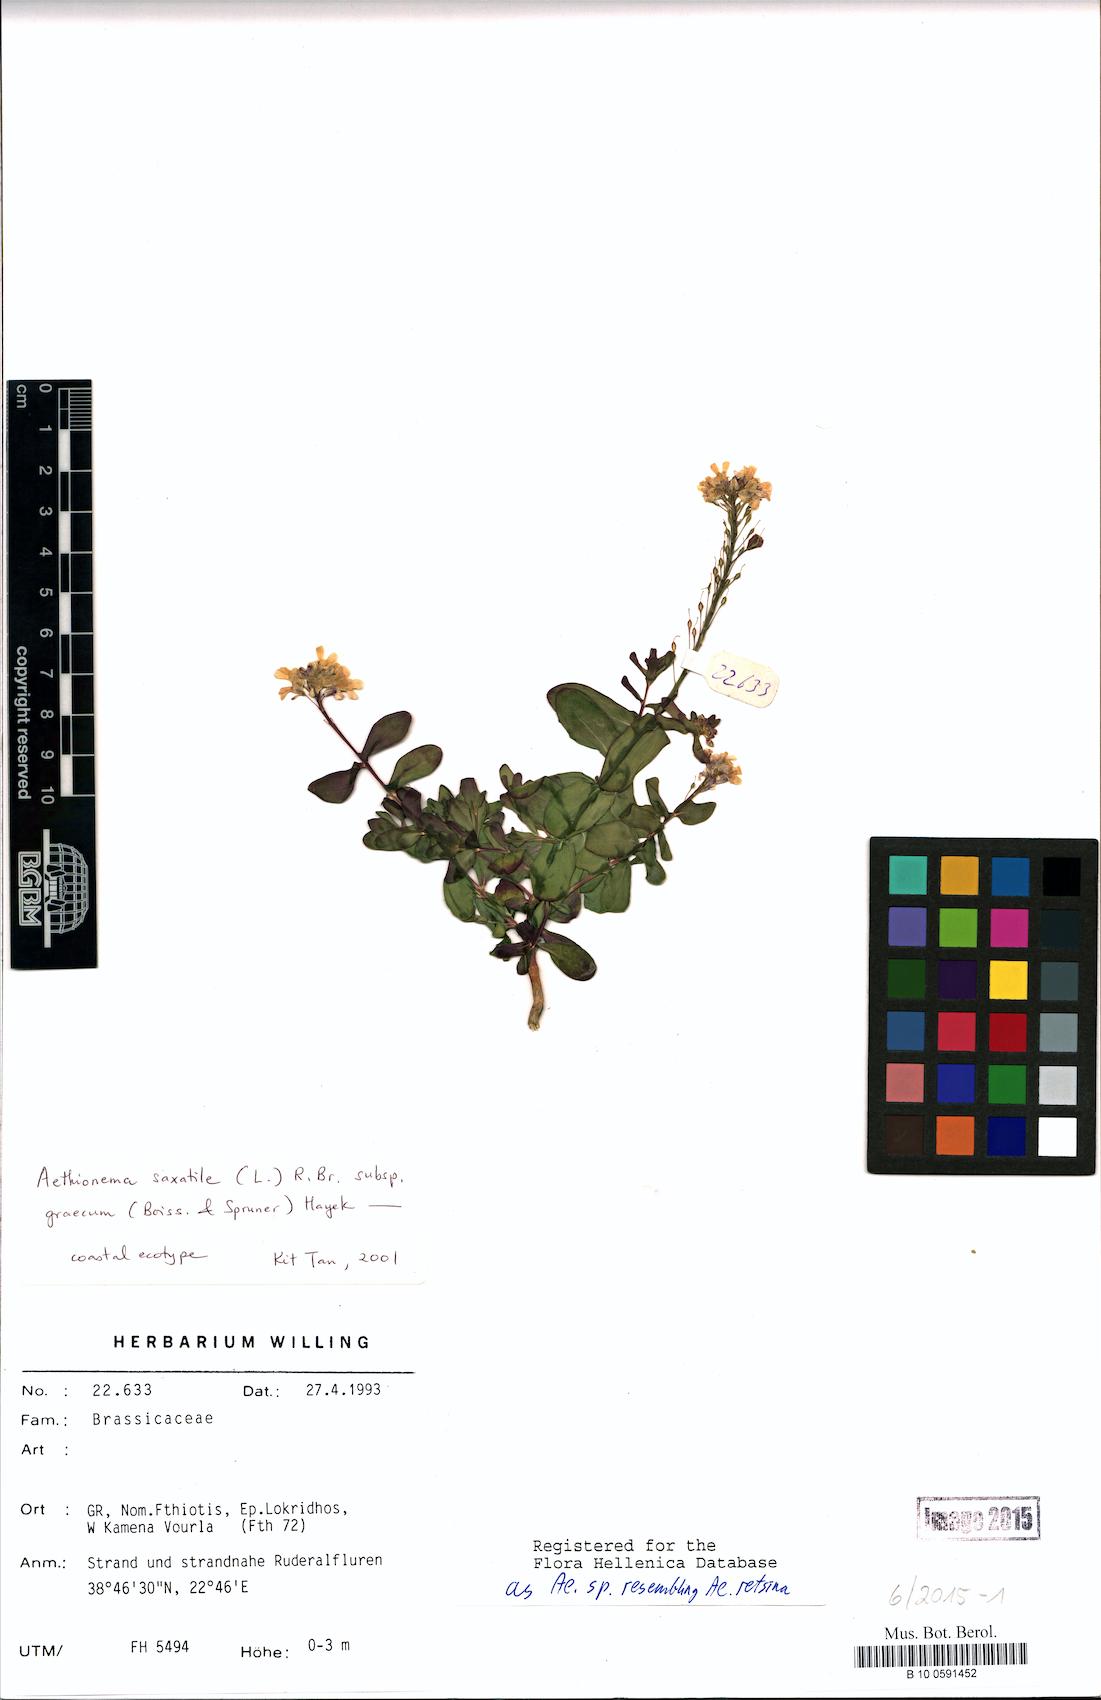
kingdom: Plantae
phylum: Tracheophyta
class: Magnoliopsida
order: Brassicales
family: Brassicaceae
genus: Aethionema
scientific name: Aethionema saxatile
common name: Burnt candytuft
